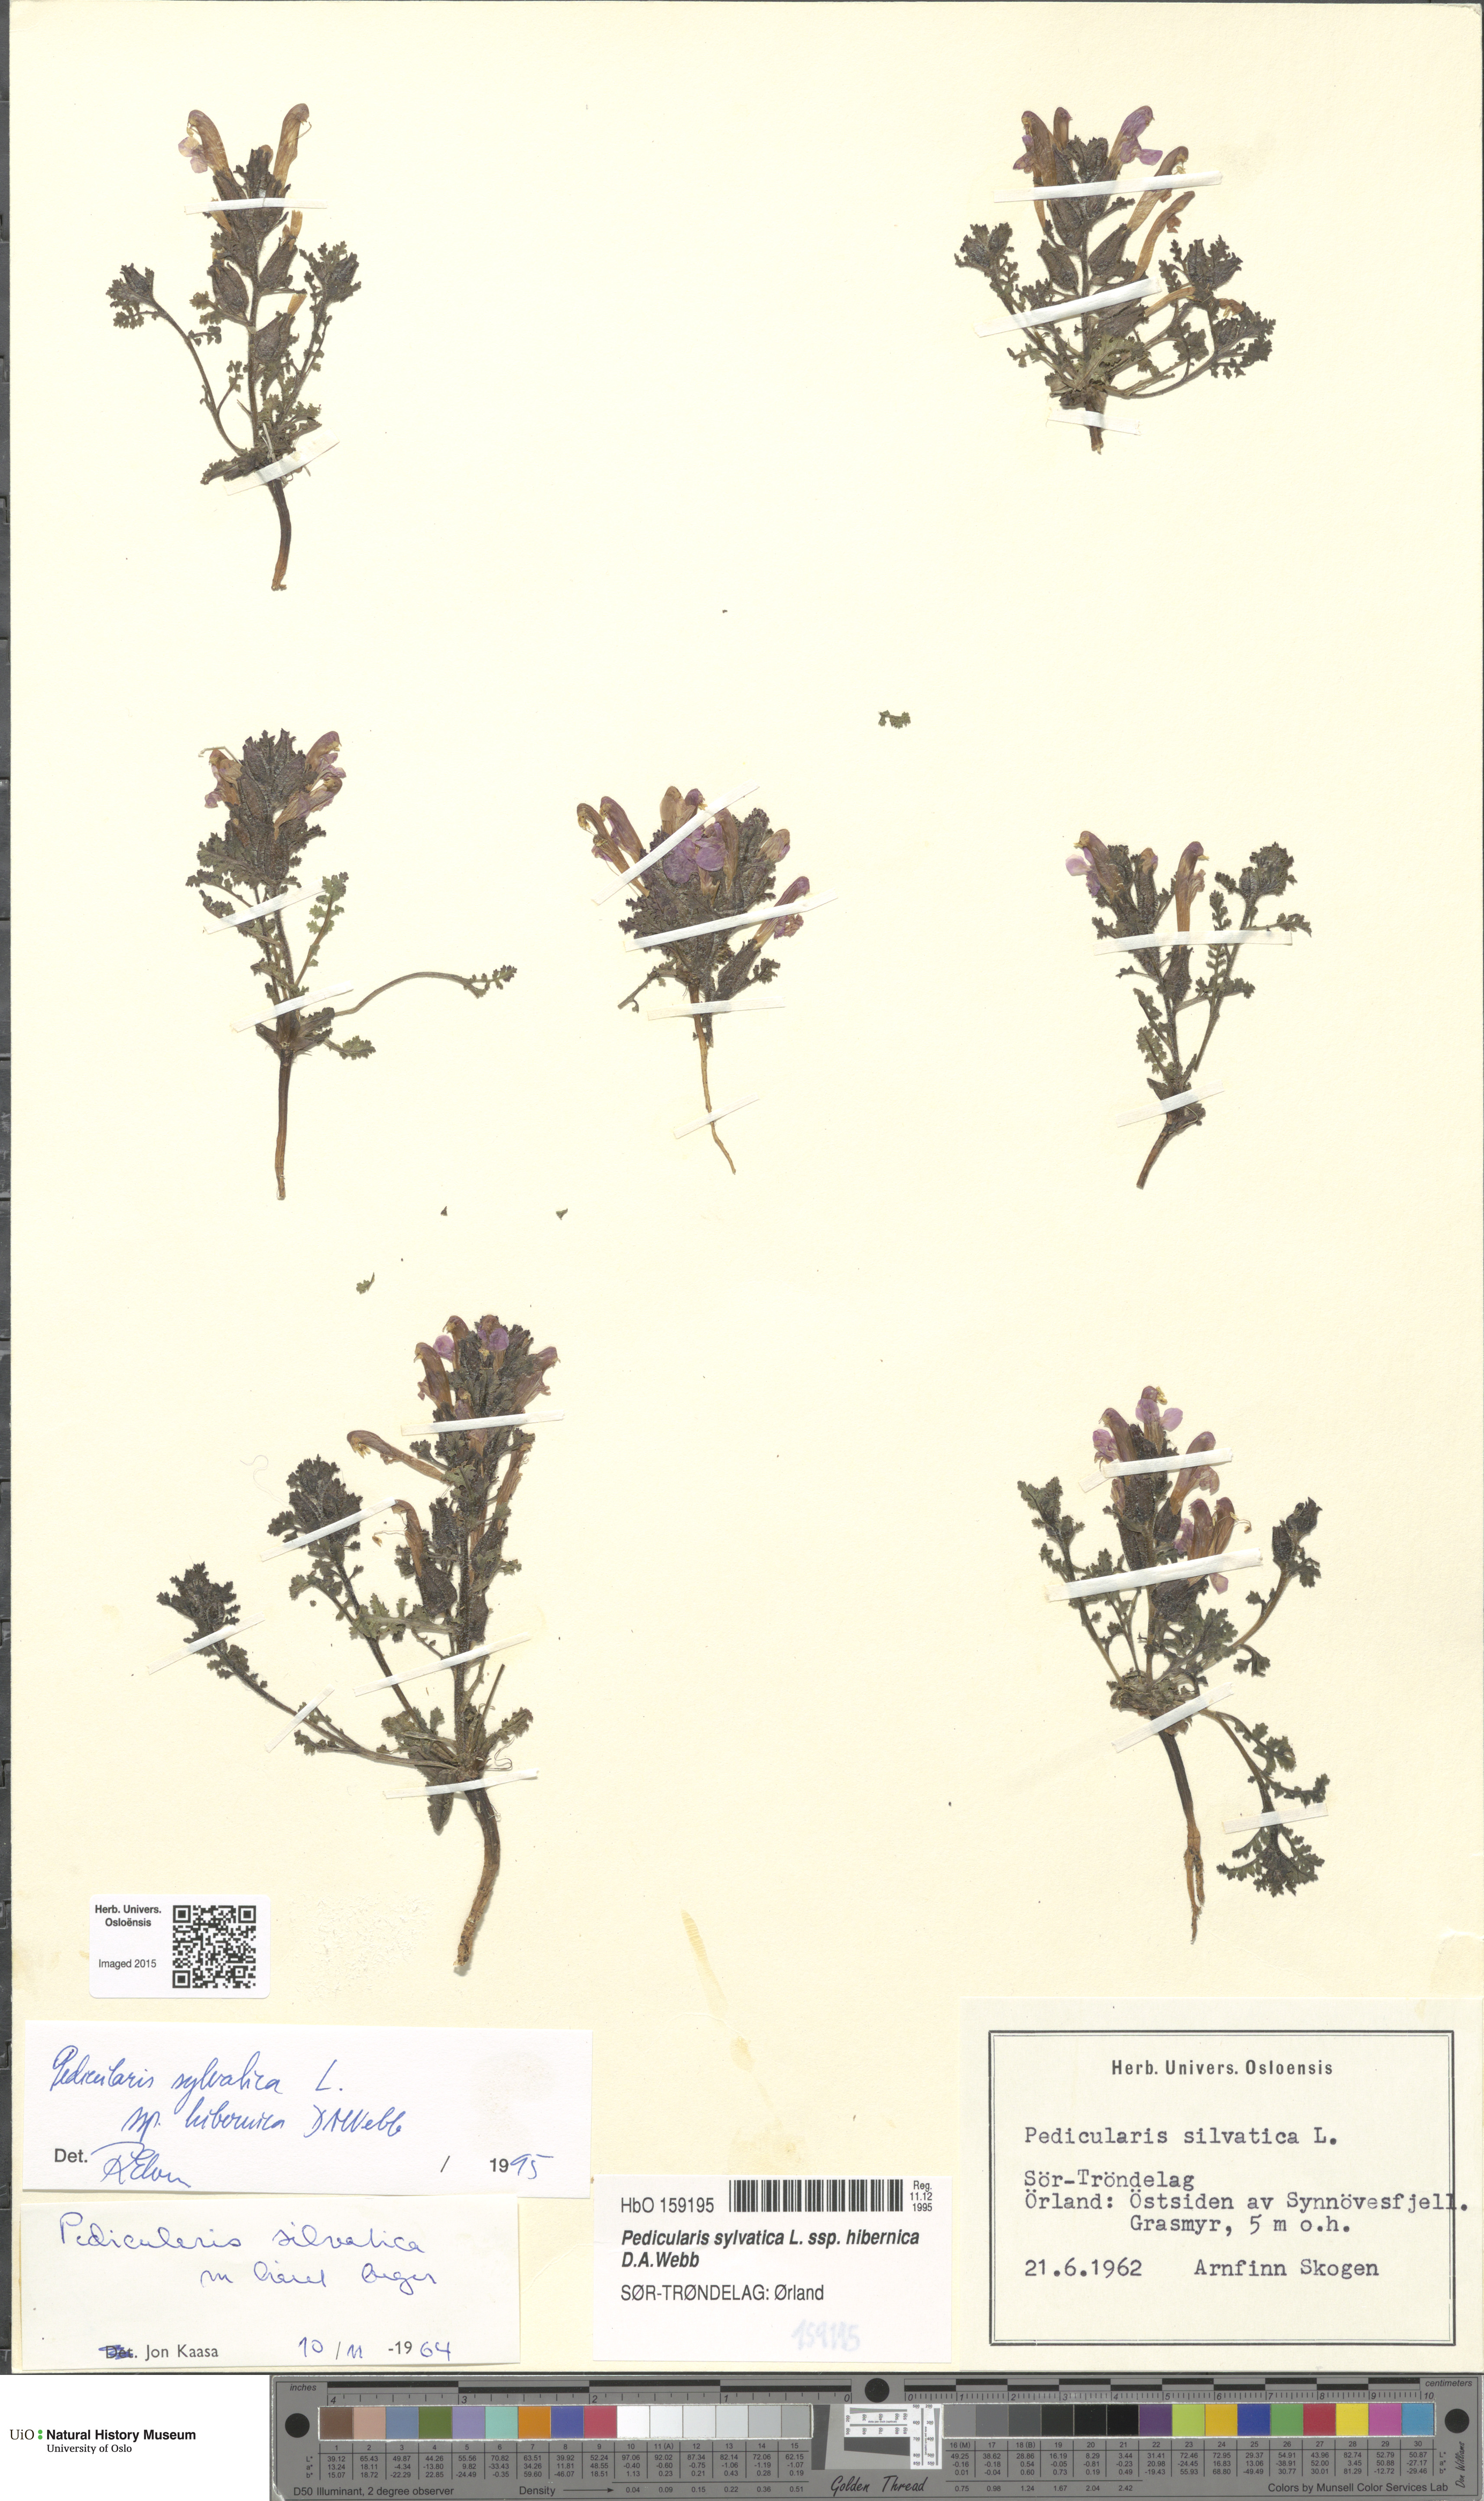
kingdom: Plantae
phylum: Tracheophyta
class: Magnoliopsida
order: Lamiales
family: Orobanchaceae
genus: Pedicularis
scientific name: Pedicularis sylvatica
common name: Lousewort
